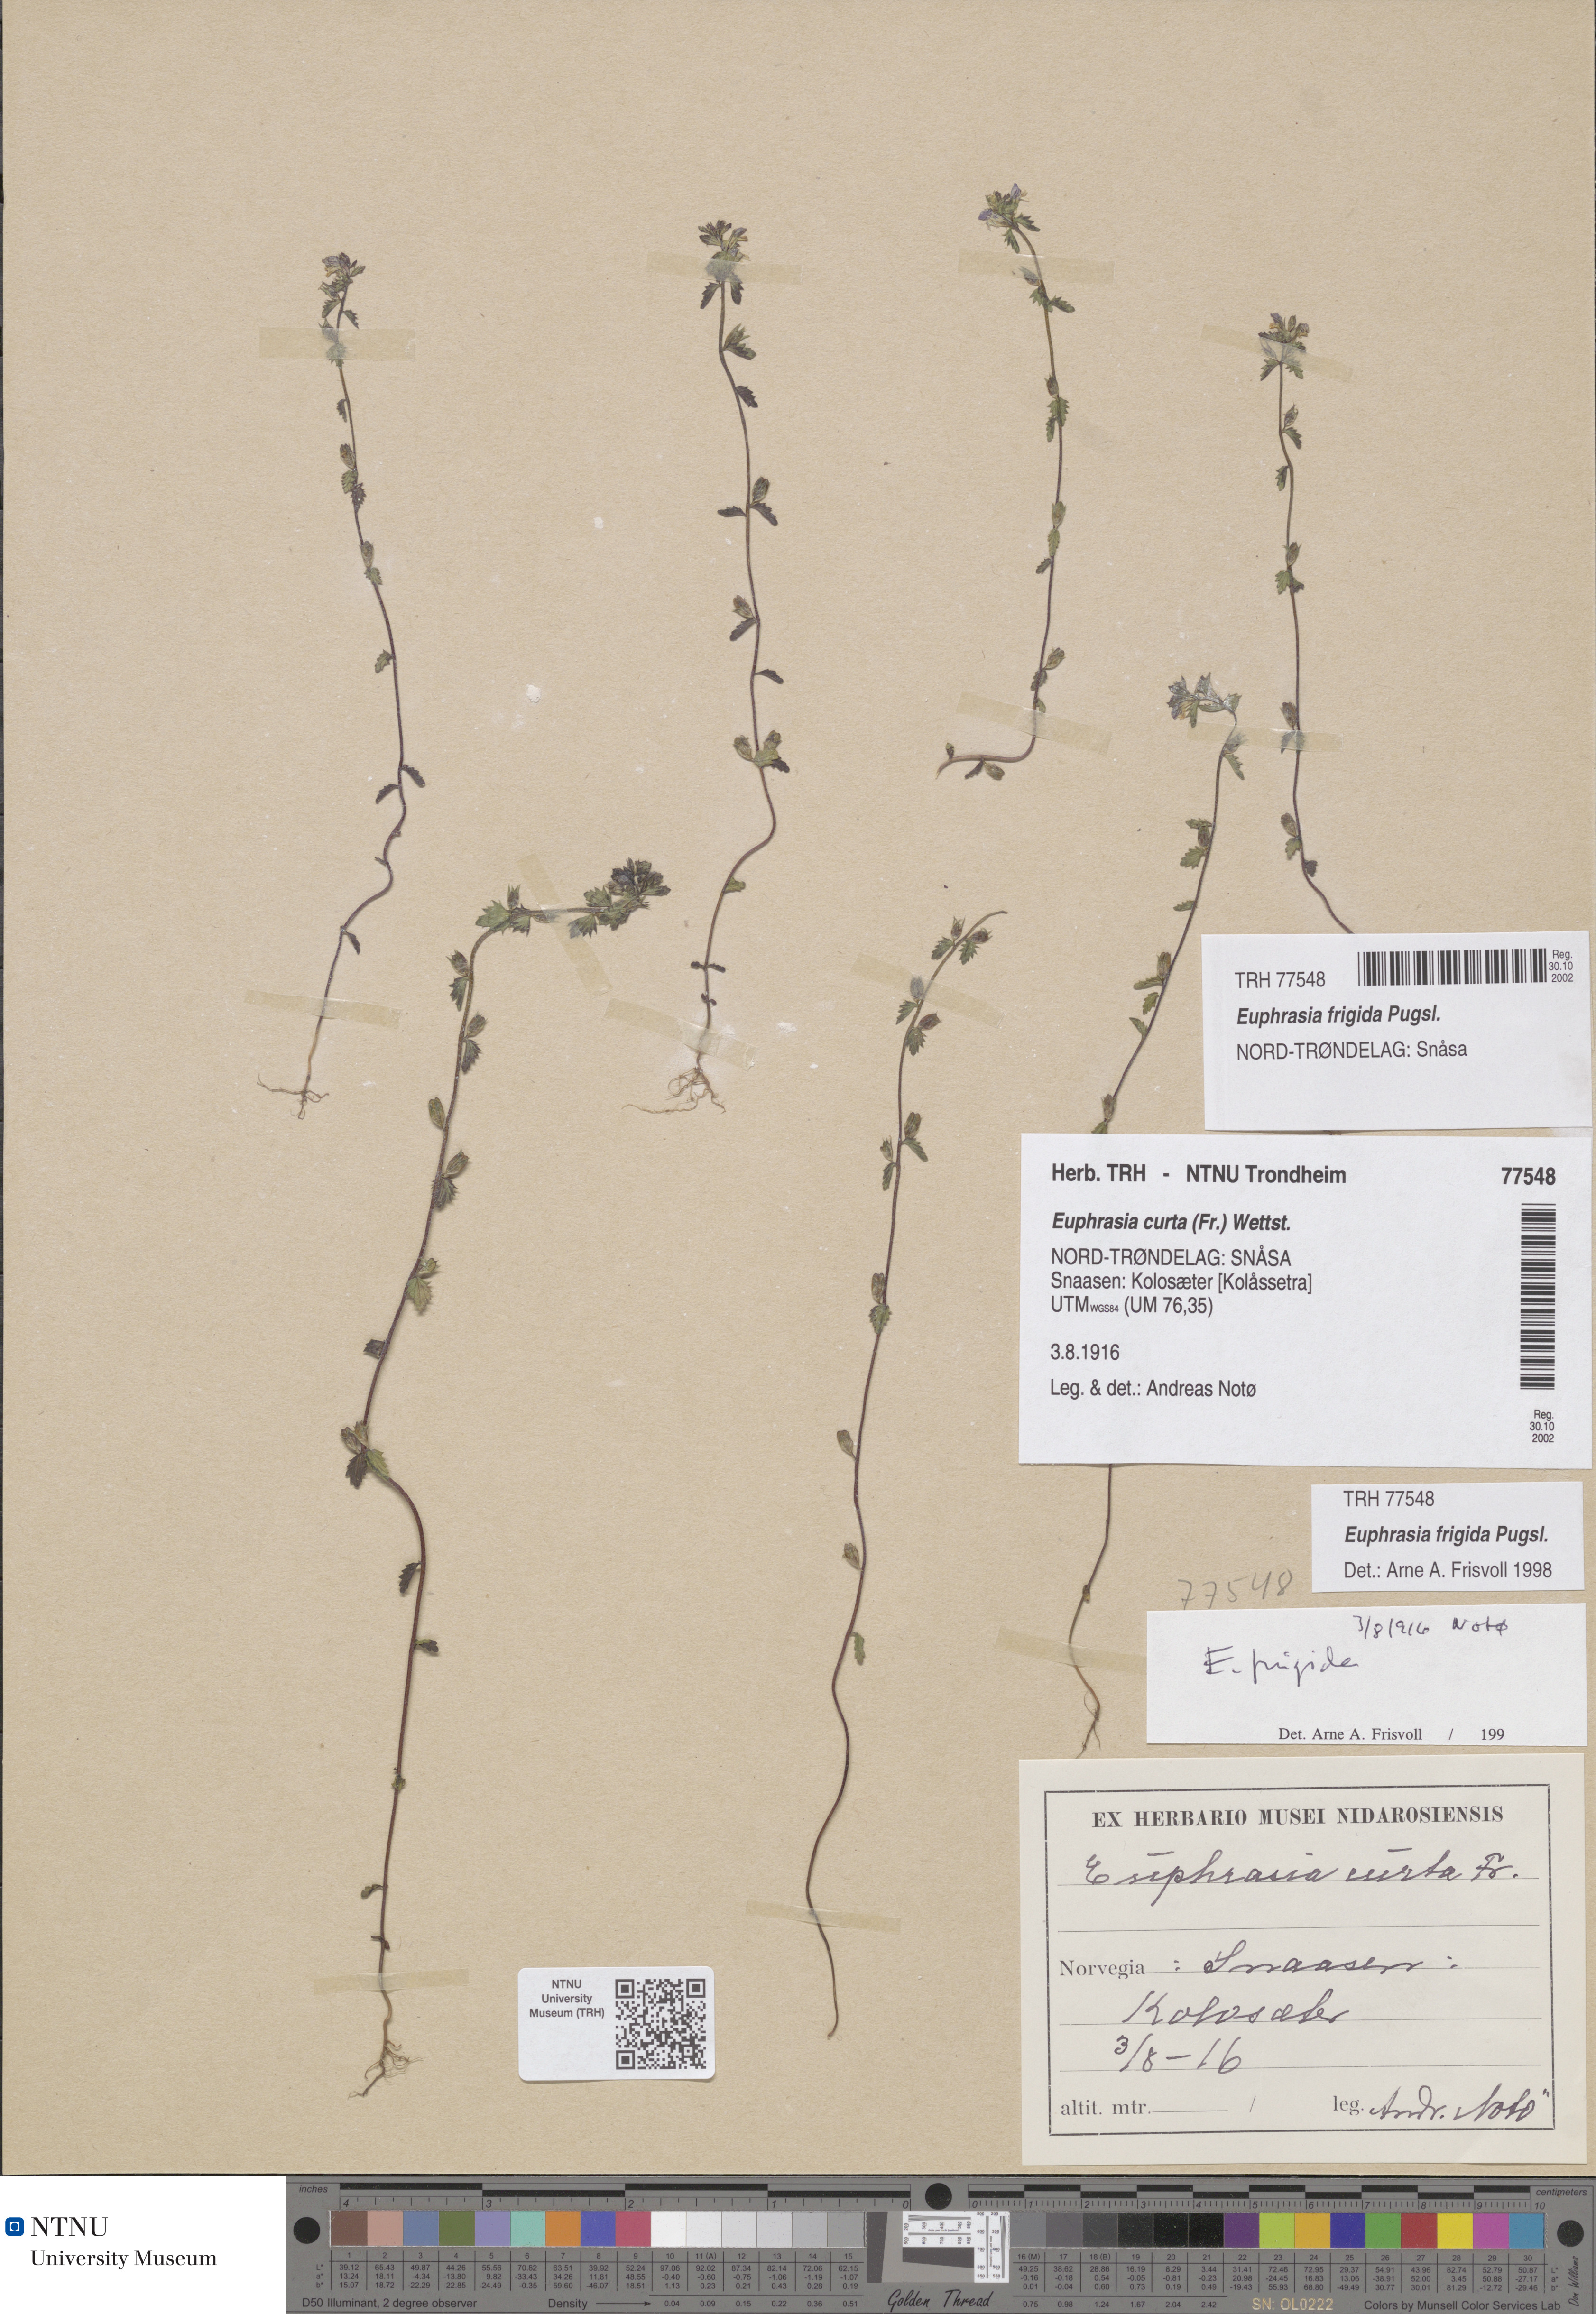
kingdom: Plantae
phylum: Tracheophyta
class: Magnoliopsida
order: Lamiales
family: Orobanchaceae
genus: Euphrasia
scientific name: Euphrasia wettsteinii
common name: Wettstein's eyebright
